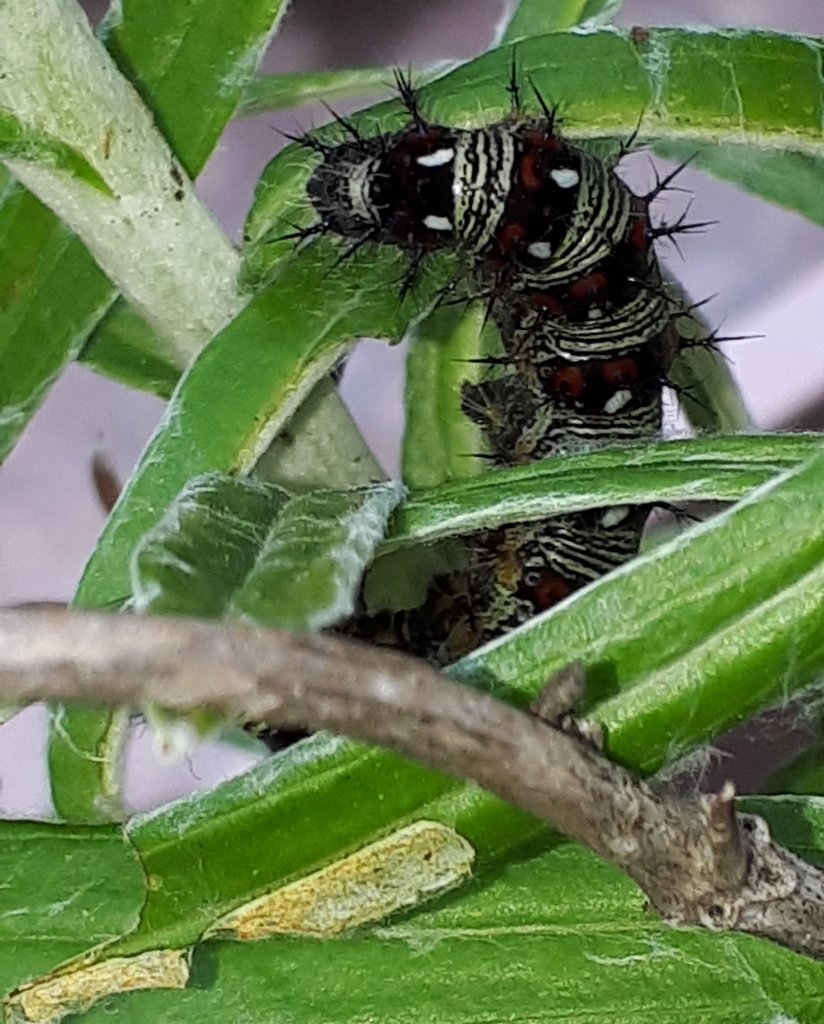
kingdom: Animalia
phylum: Arthropoda
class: Insecta
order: Lepidoptera
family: Nymphalidae
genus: Vanessa
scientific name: Vanessa virginiensis
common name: American Lady
